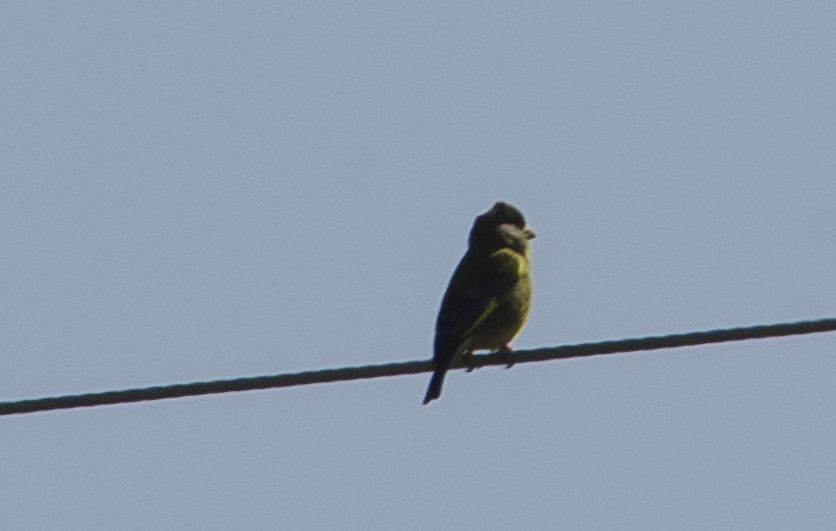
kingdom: Plantae
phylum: Tracheophyta
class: Liliopsida
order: Poales
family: Poaceae
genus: Chloris
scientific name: Chloris chloris
